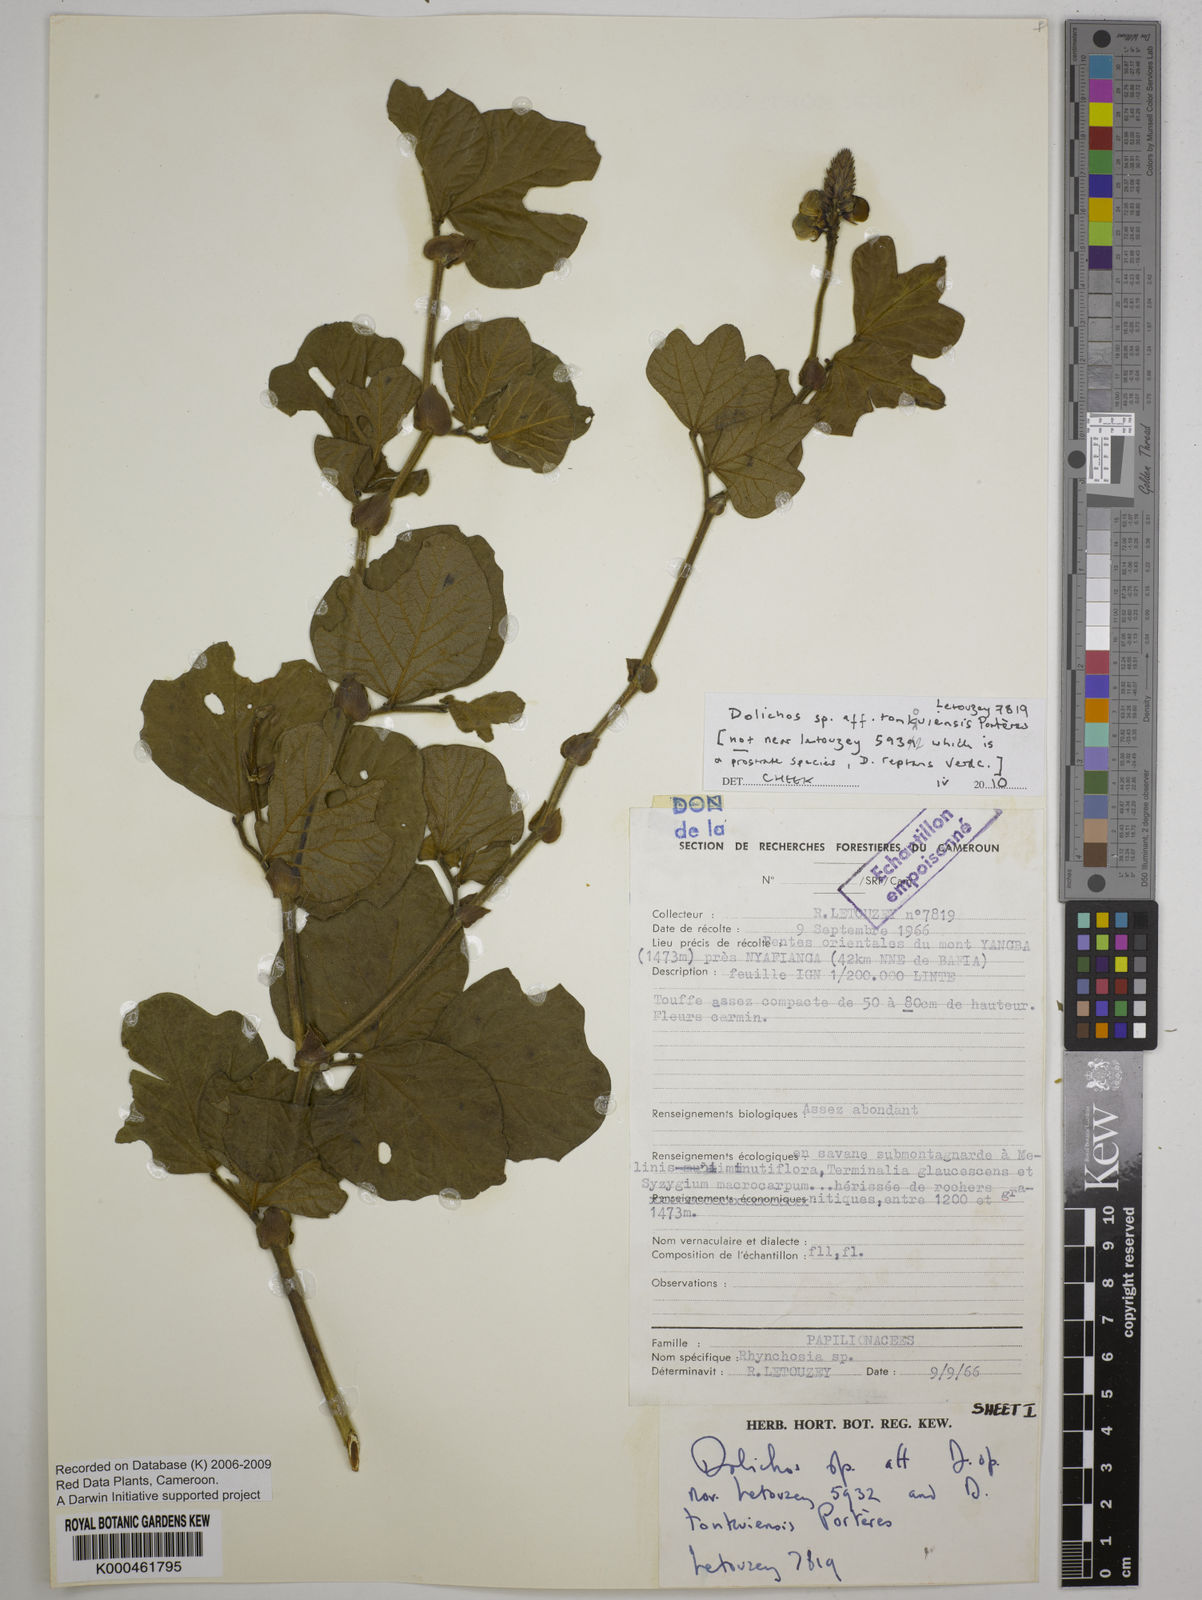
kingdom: Plantae
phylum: Tracheophyta
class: Magnoliopsida
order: Fabales
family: Fabaceae
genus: Dolichos
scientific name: Dolichos
